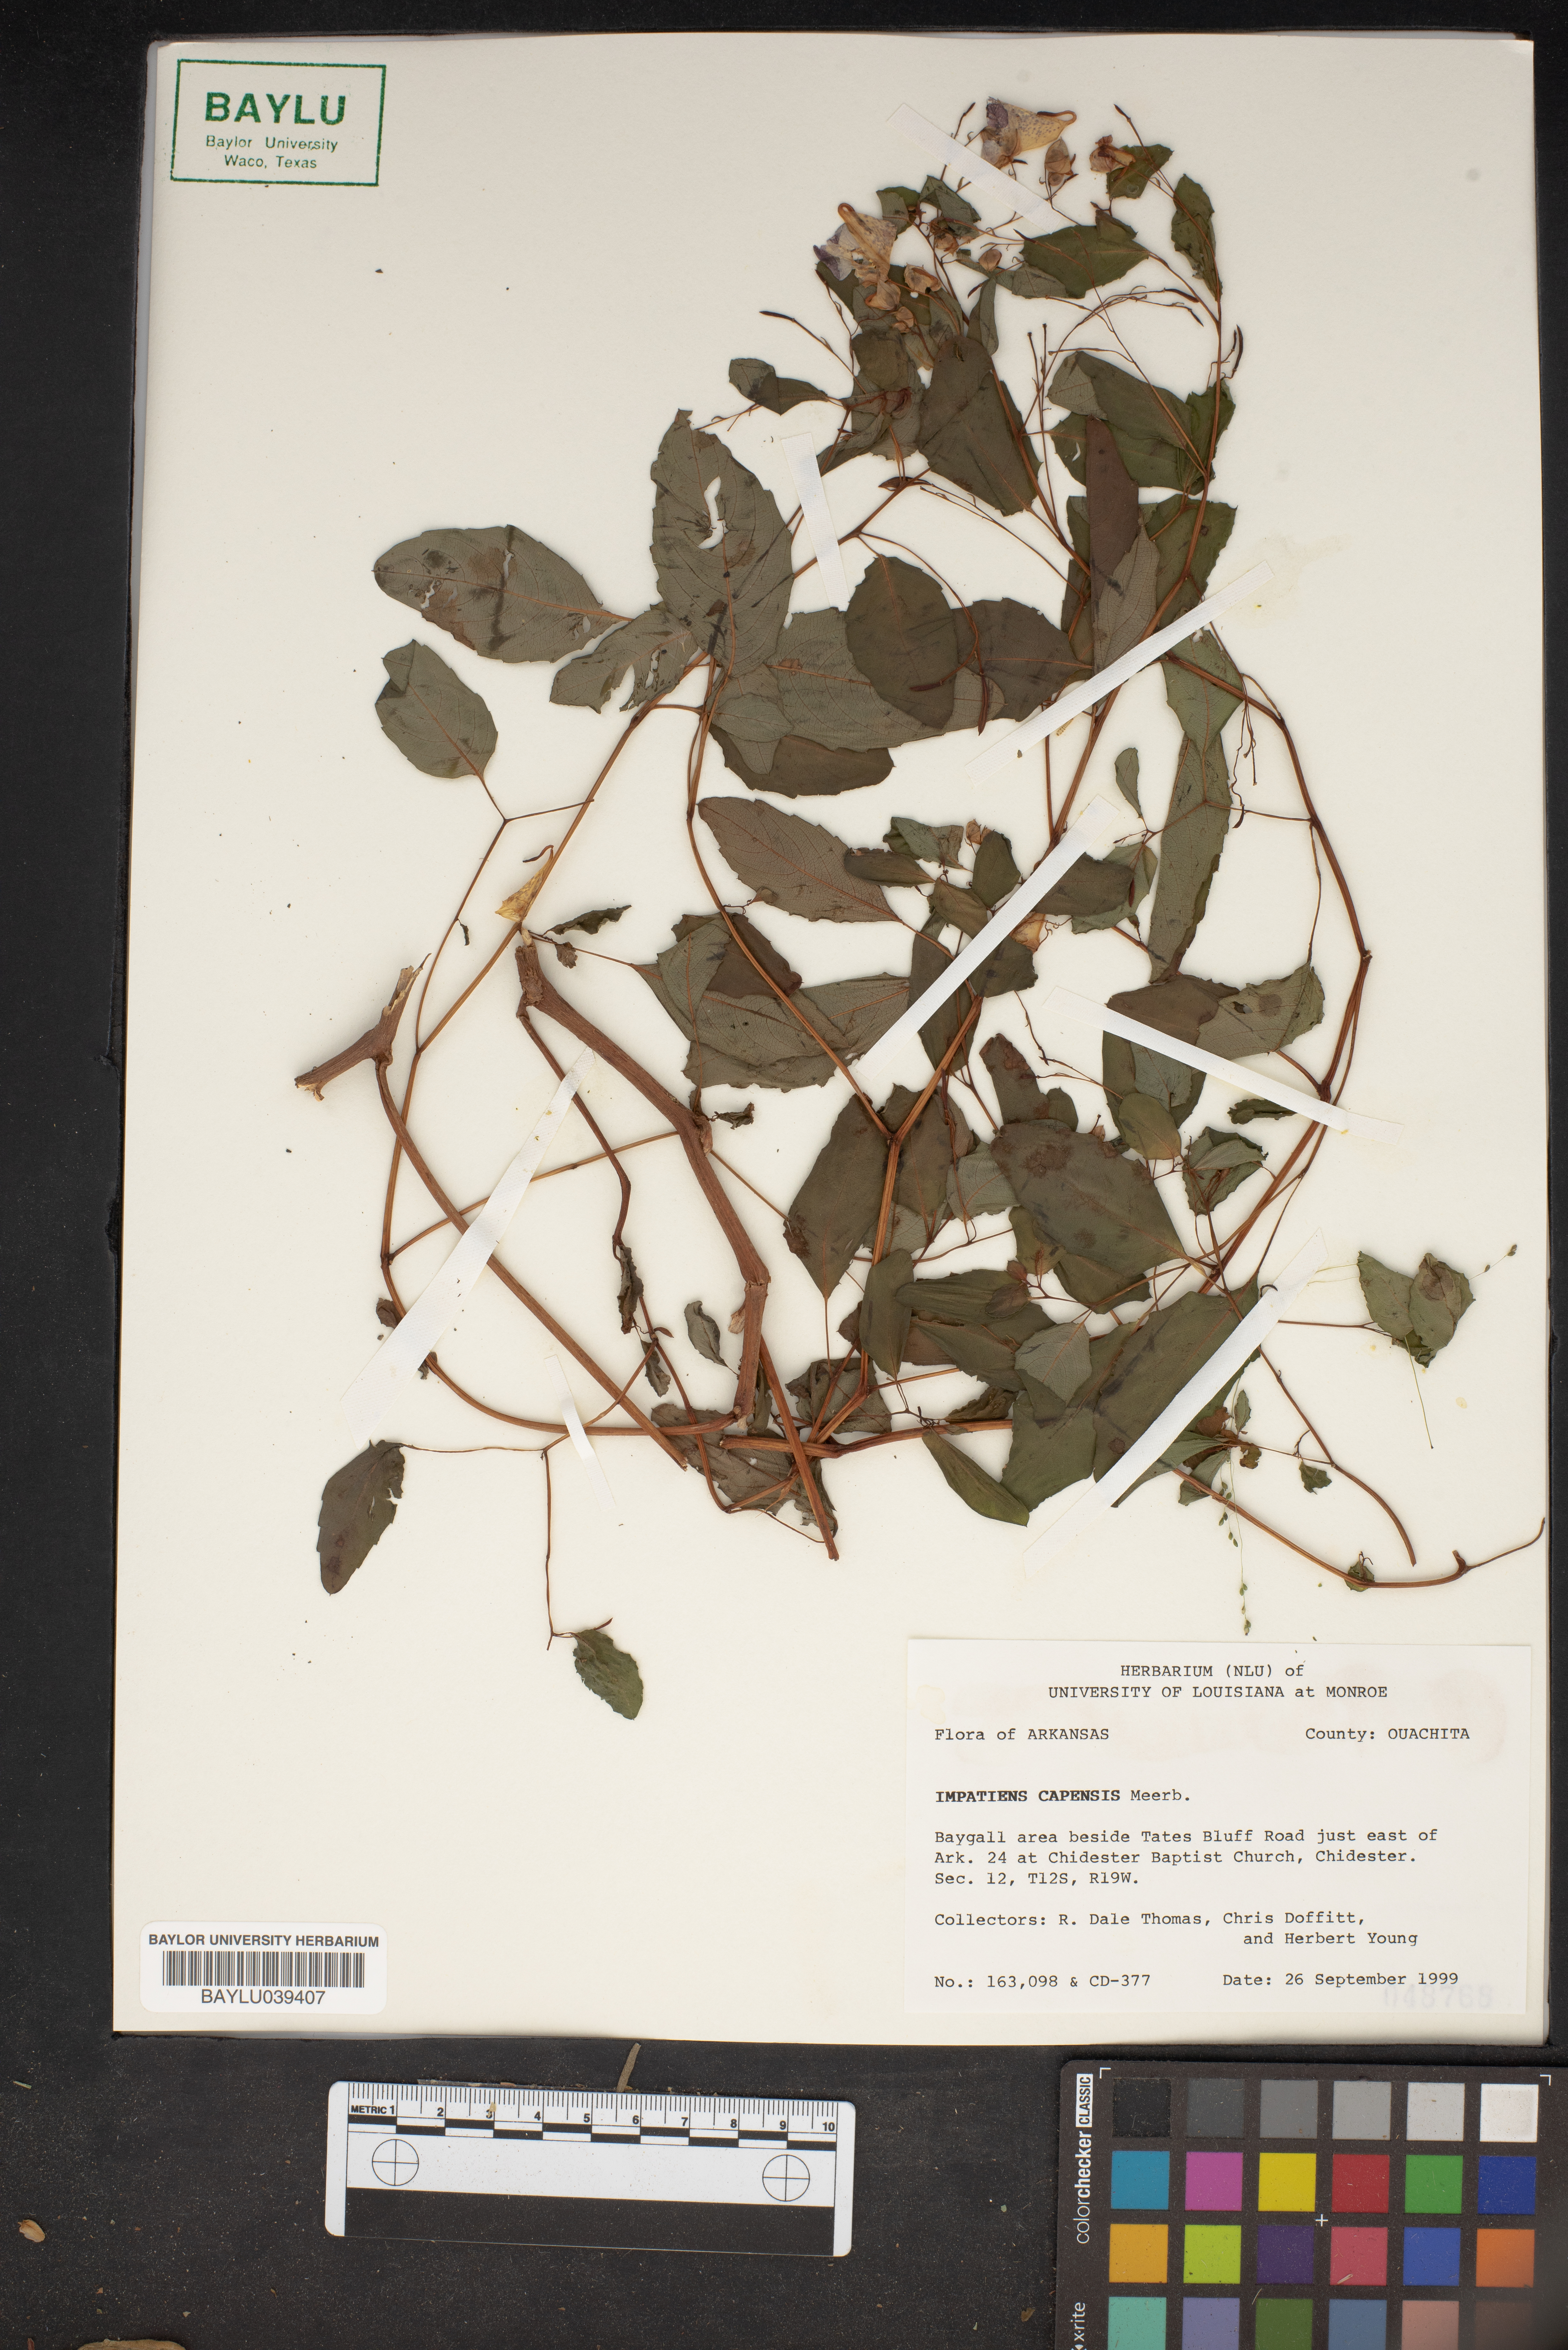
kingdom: Plantae
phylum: Tracheophyta
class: Magnoliopsida
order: Ericales
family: Balsaminaceae
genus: Impatiens
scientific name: Impatiens capensis
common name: Orange balsam
